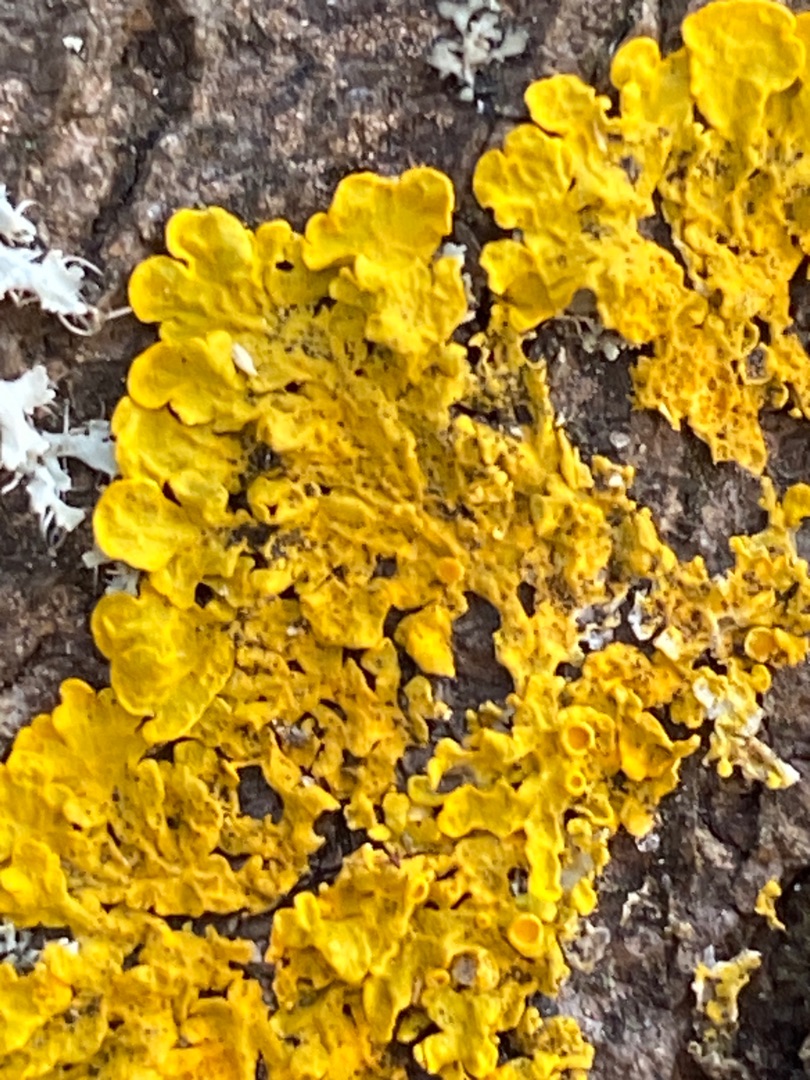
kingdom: Fungi
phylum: Ascomycota
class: Lecanoromycetes
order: Teloschistales
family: Teloschistaceae
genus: Xanthoria
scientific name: Xanthoria parietina
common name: Almindelig væggelav
